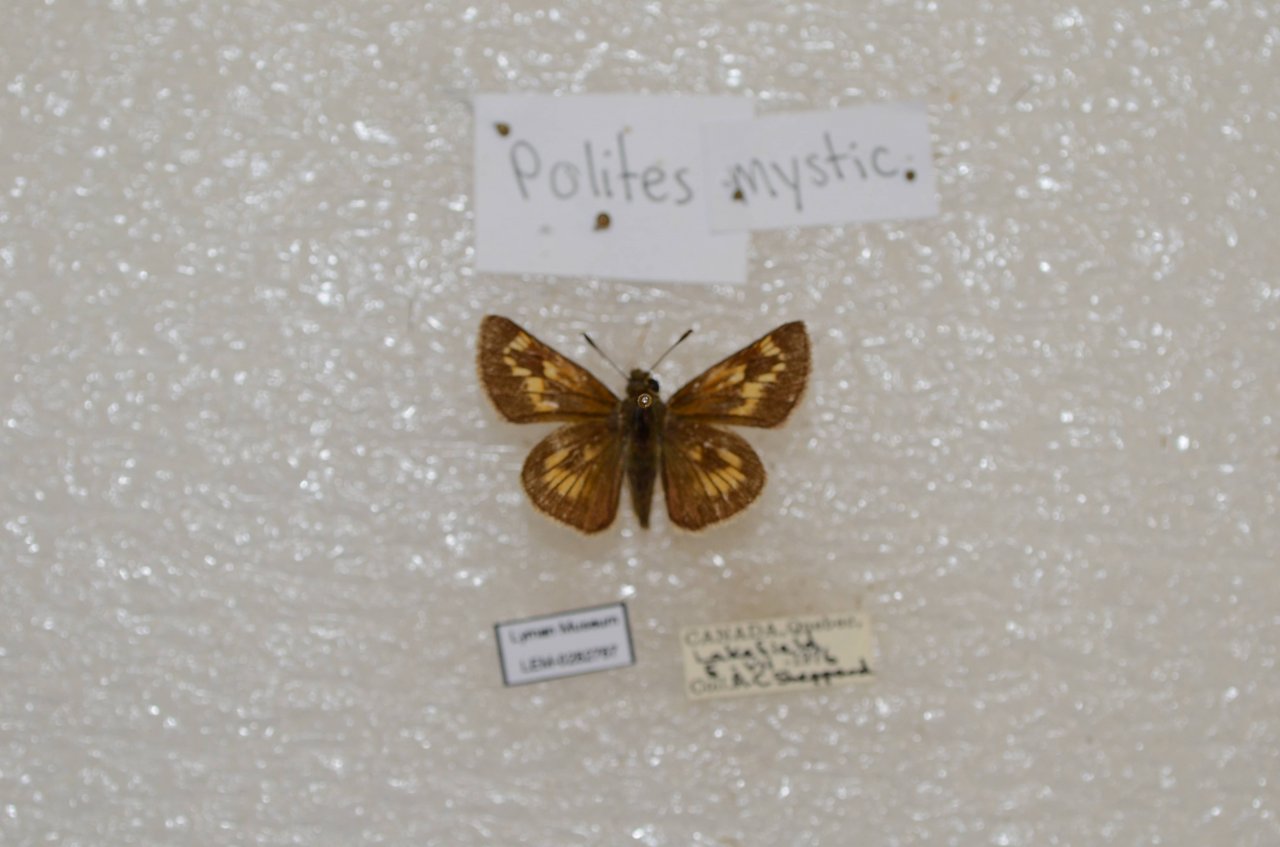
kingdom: Animalia
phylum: Arthropoda
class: Insecta
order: Lepidoptera
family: Hesperiidae
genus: Polites
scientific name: Polites
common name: Long Dash Skipper
